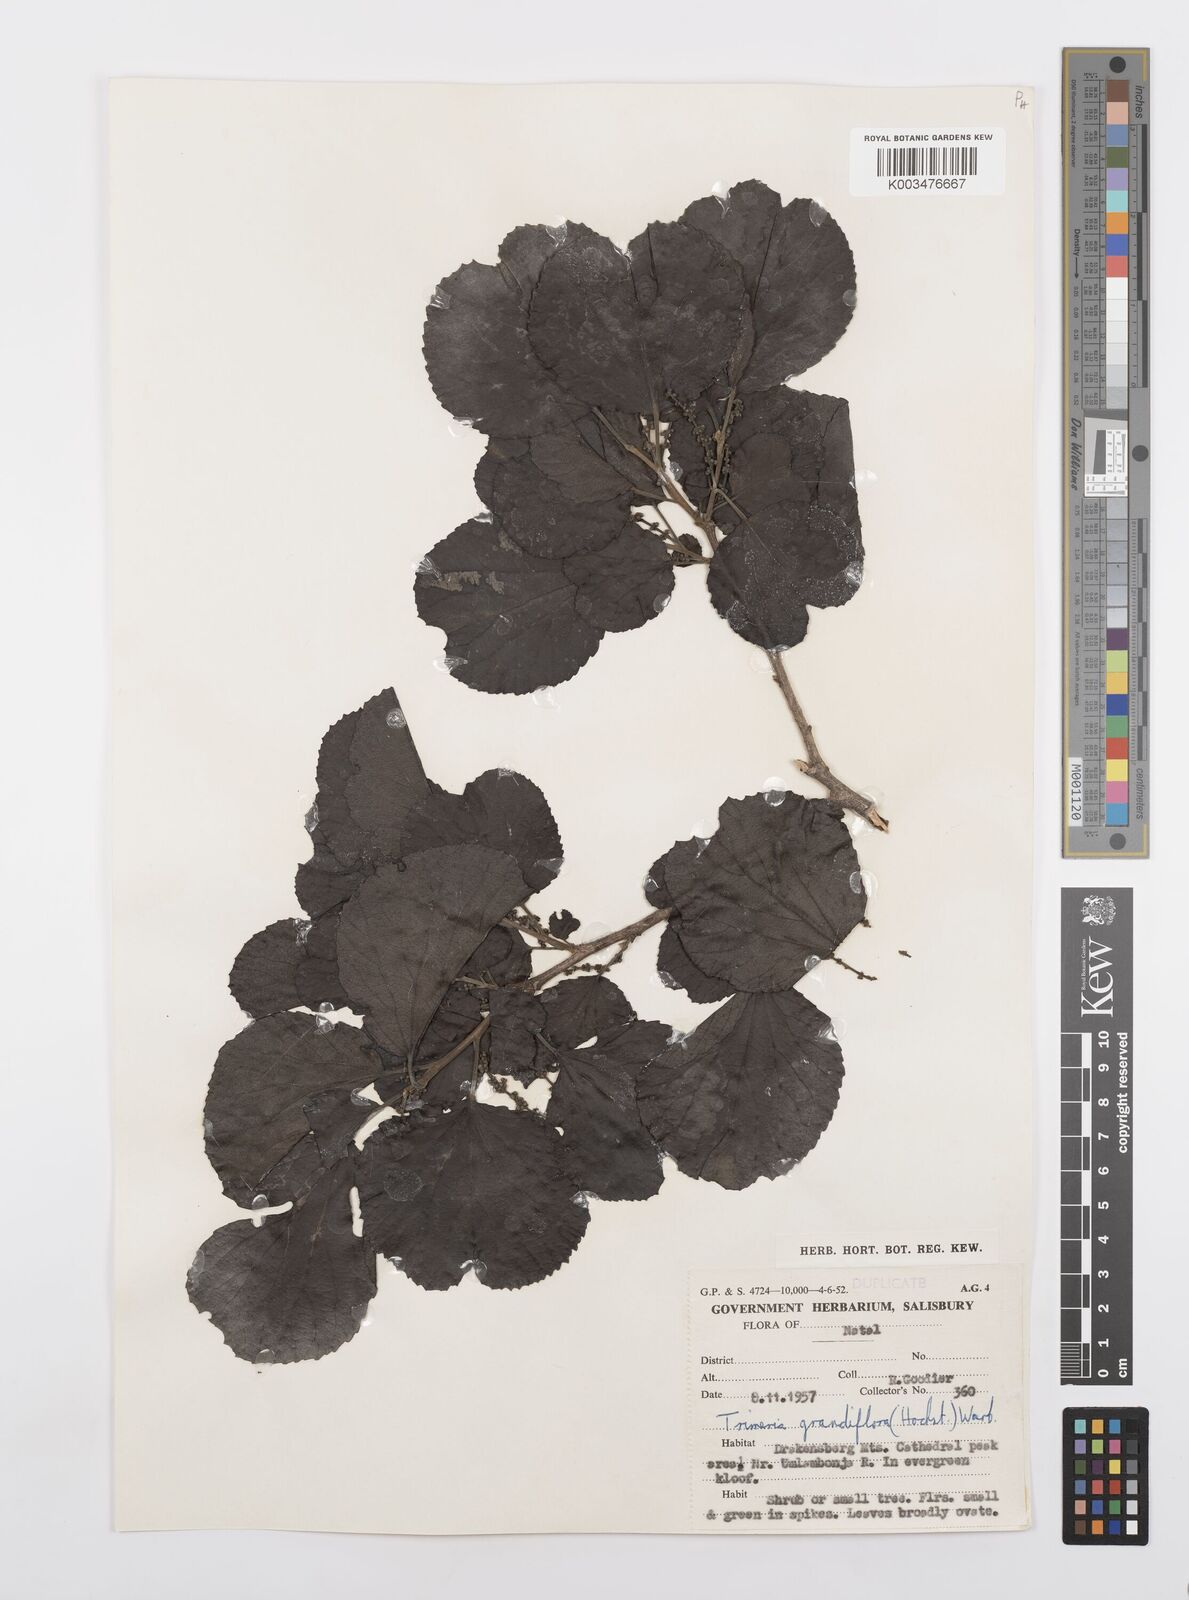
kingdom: Plantae
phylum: Tracheophyta
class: Magnoliopsida
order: Malpighiales
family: Salicaceae
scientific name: Salicaceae
